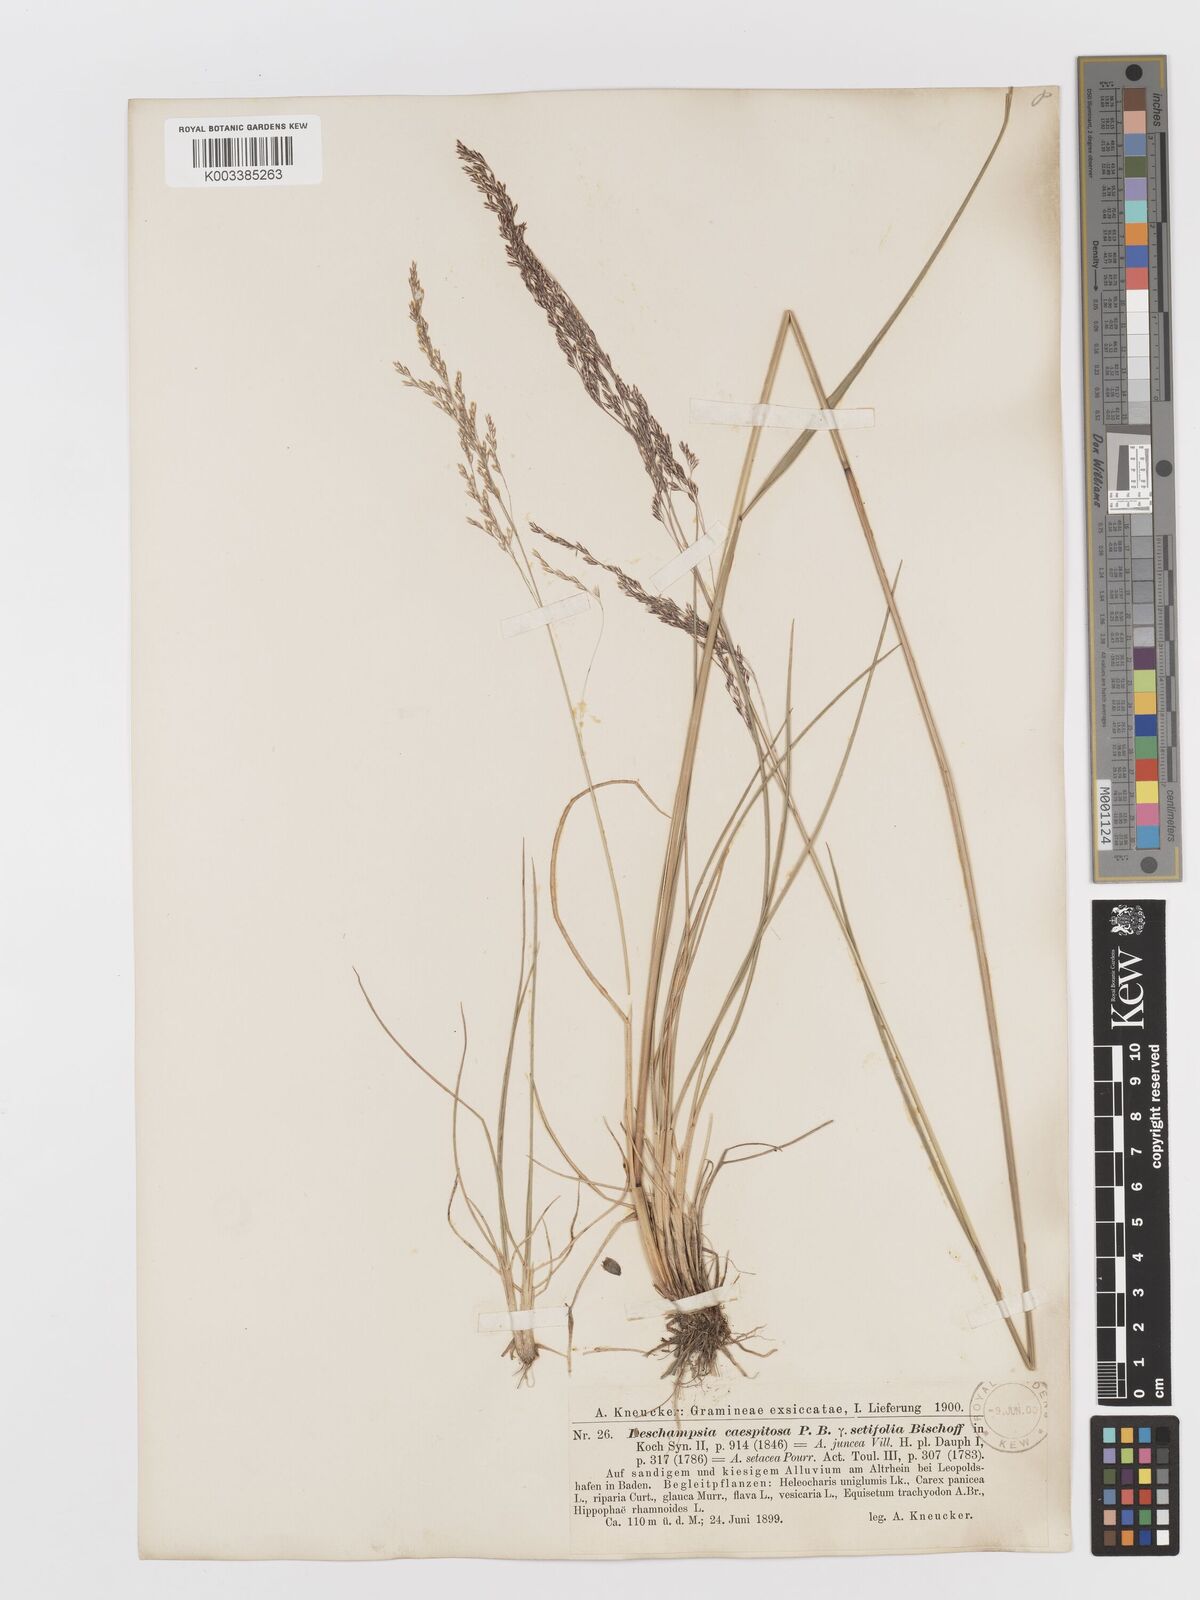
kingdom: Plantae
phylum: Tracheophyta
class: Liliopsida
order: Poales
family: Poaceae
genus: Deschampsia
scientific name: Deschampsia cespitosa
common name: Tufted hair-grass
